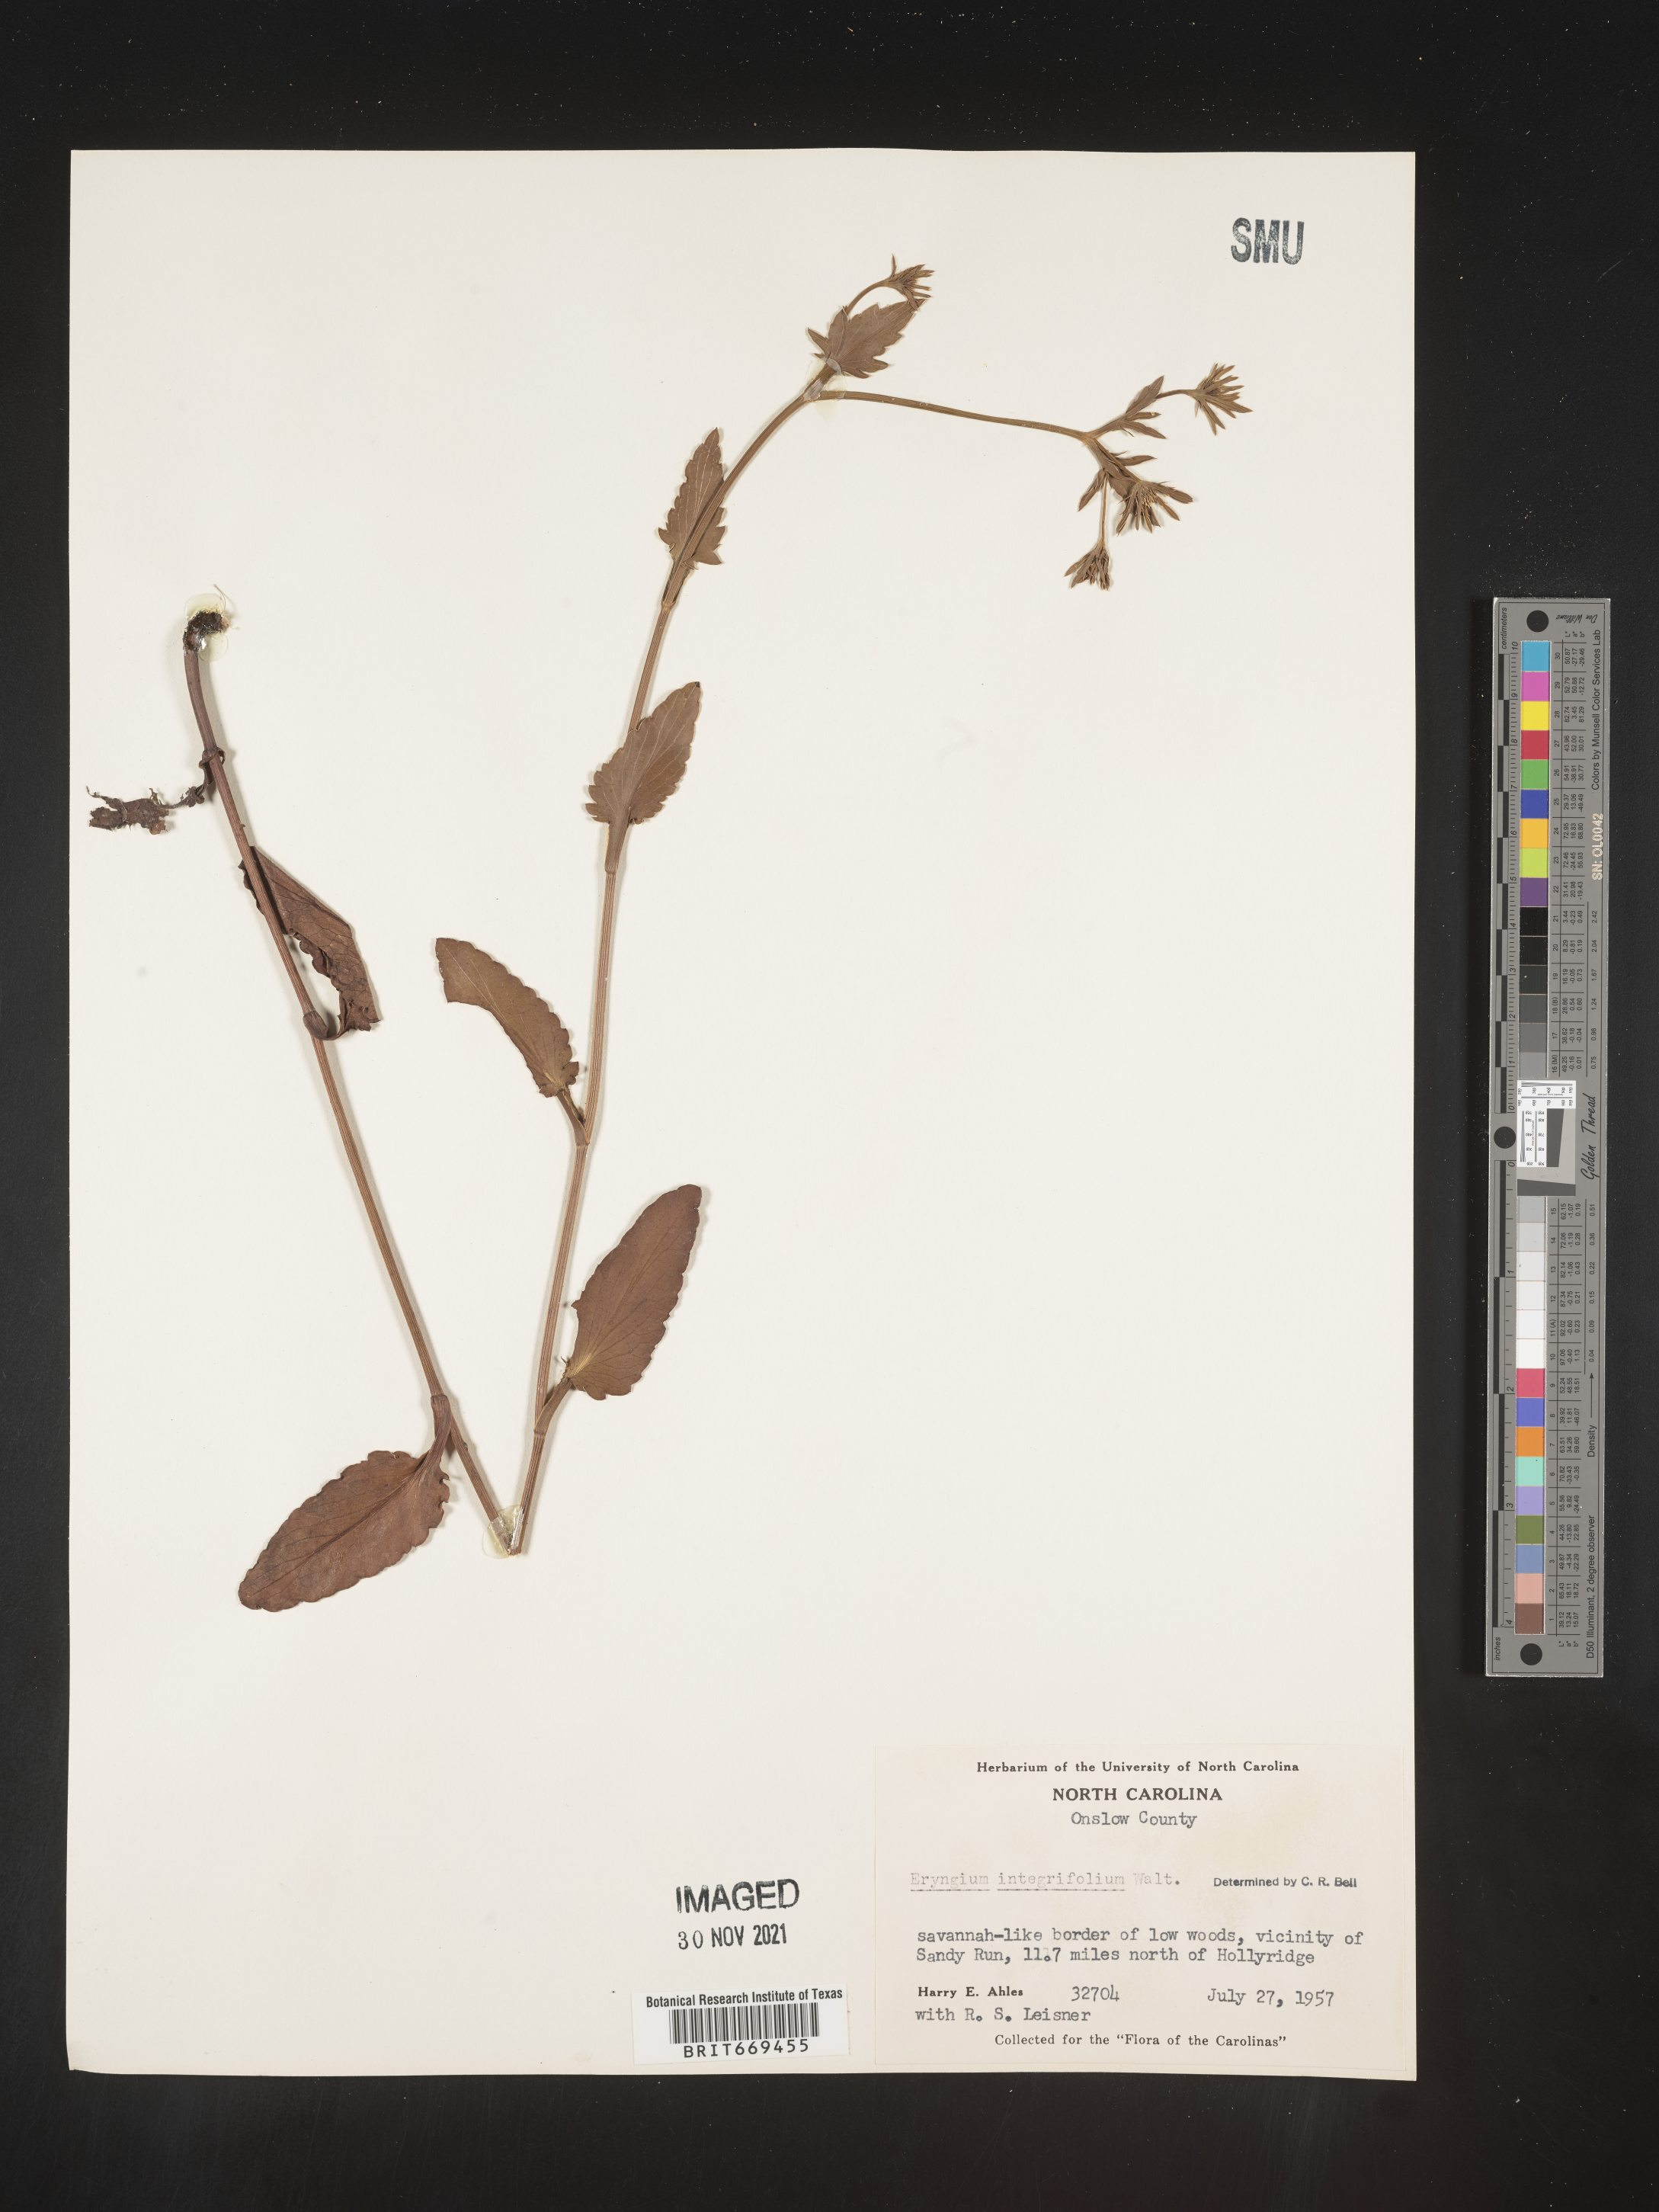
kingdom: Plantae
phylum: Tracheophyta
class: Magnoliopsida
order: Apiales
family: Apiaceae
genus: Eryngium
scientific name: Eryngium integrifolium
